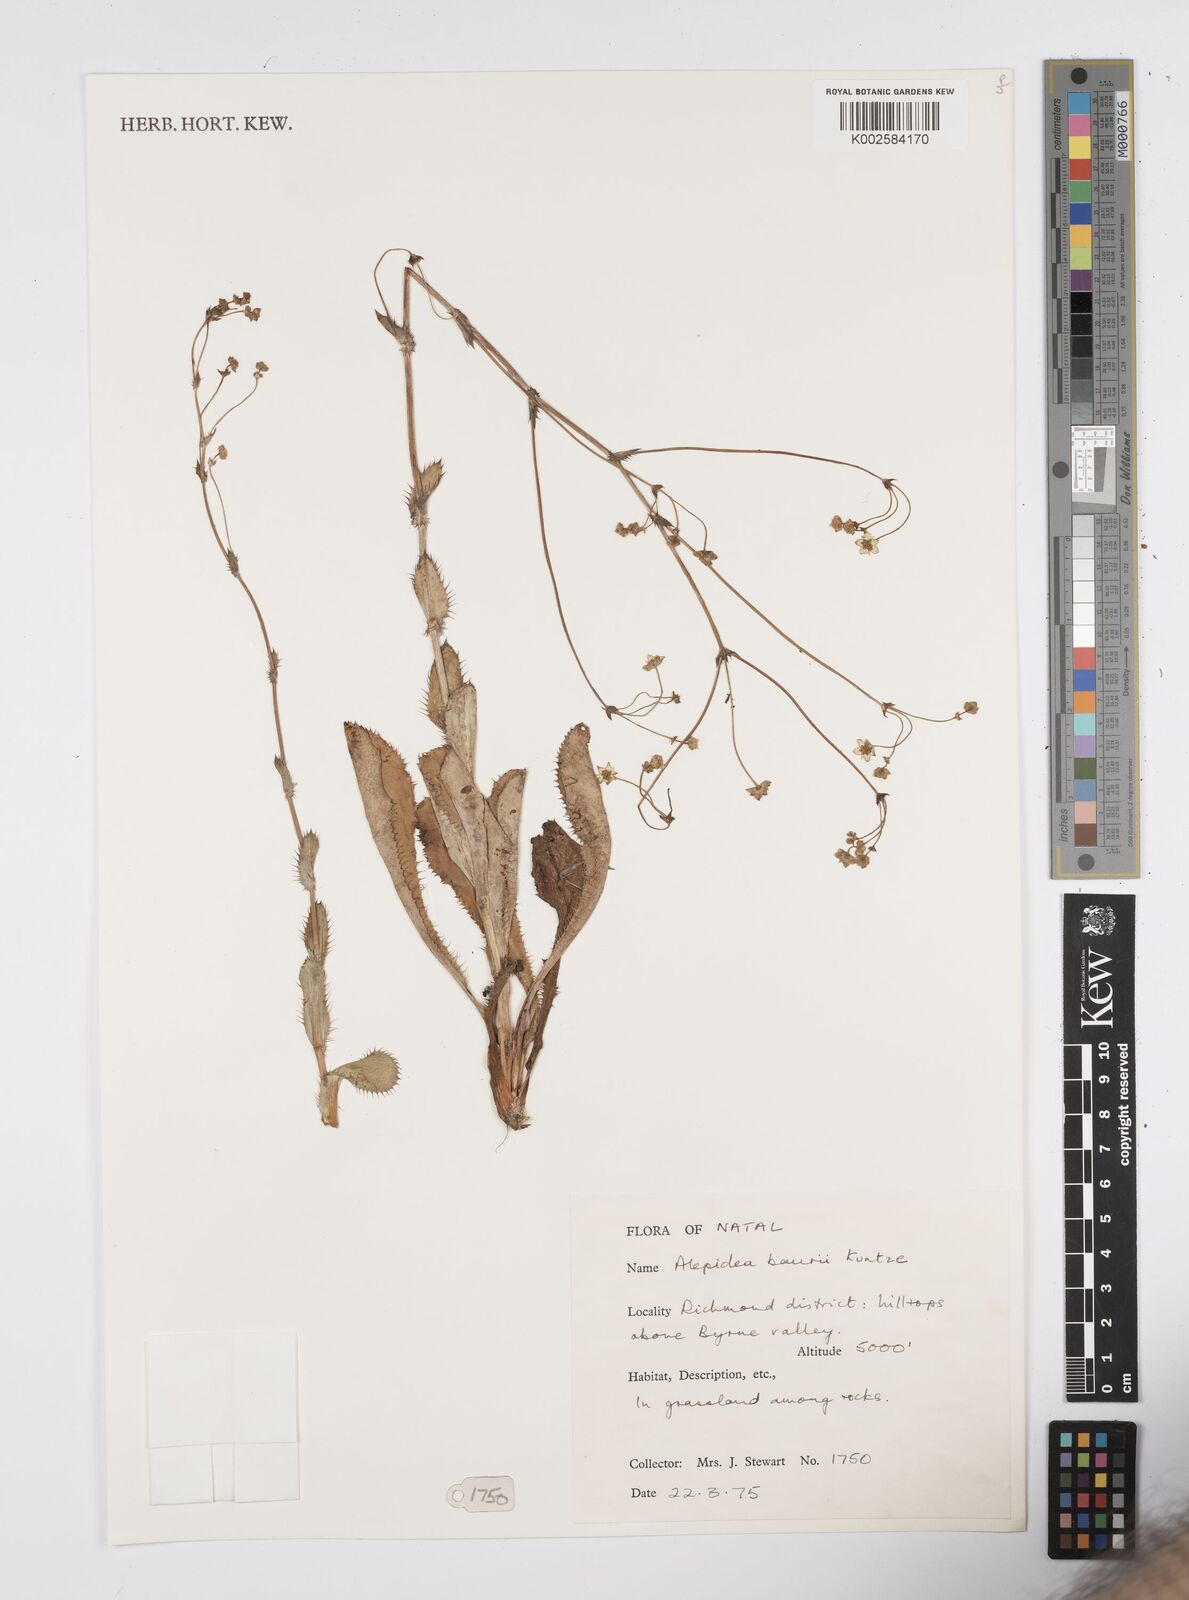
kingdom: Plantae
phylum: Tracheophyta
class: Magnoliopsida
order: Apiales
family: Apiaceae
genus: Alepidea
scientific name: Alepidea natalensis
